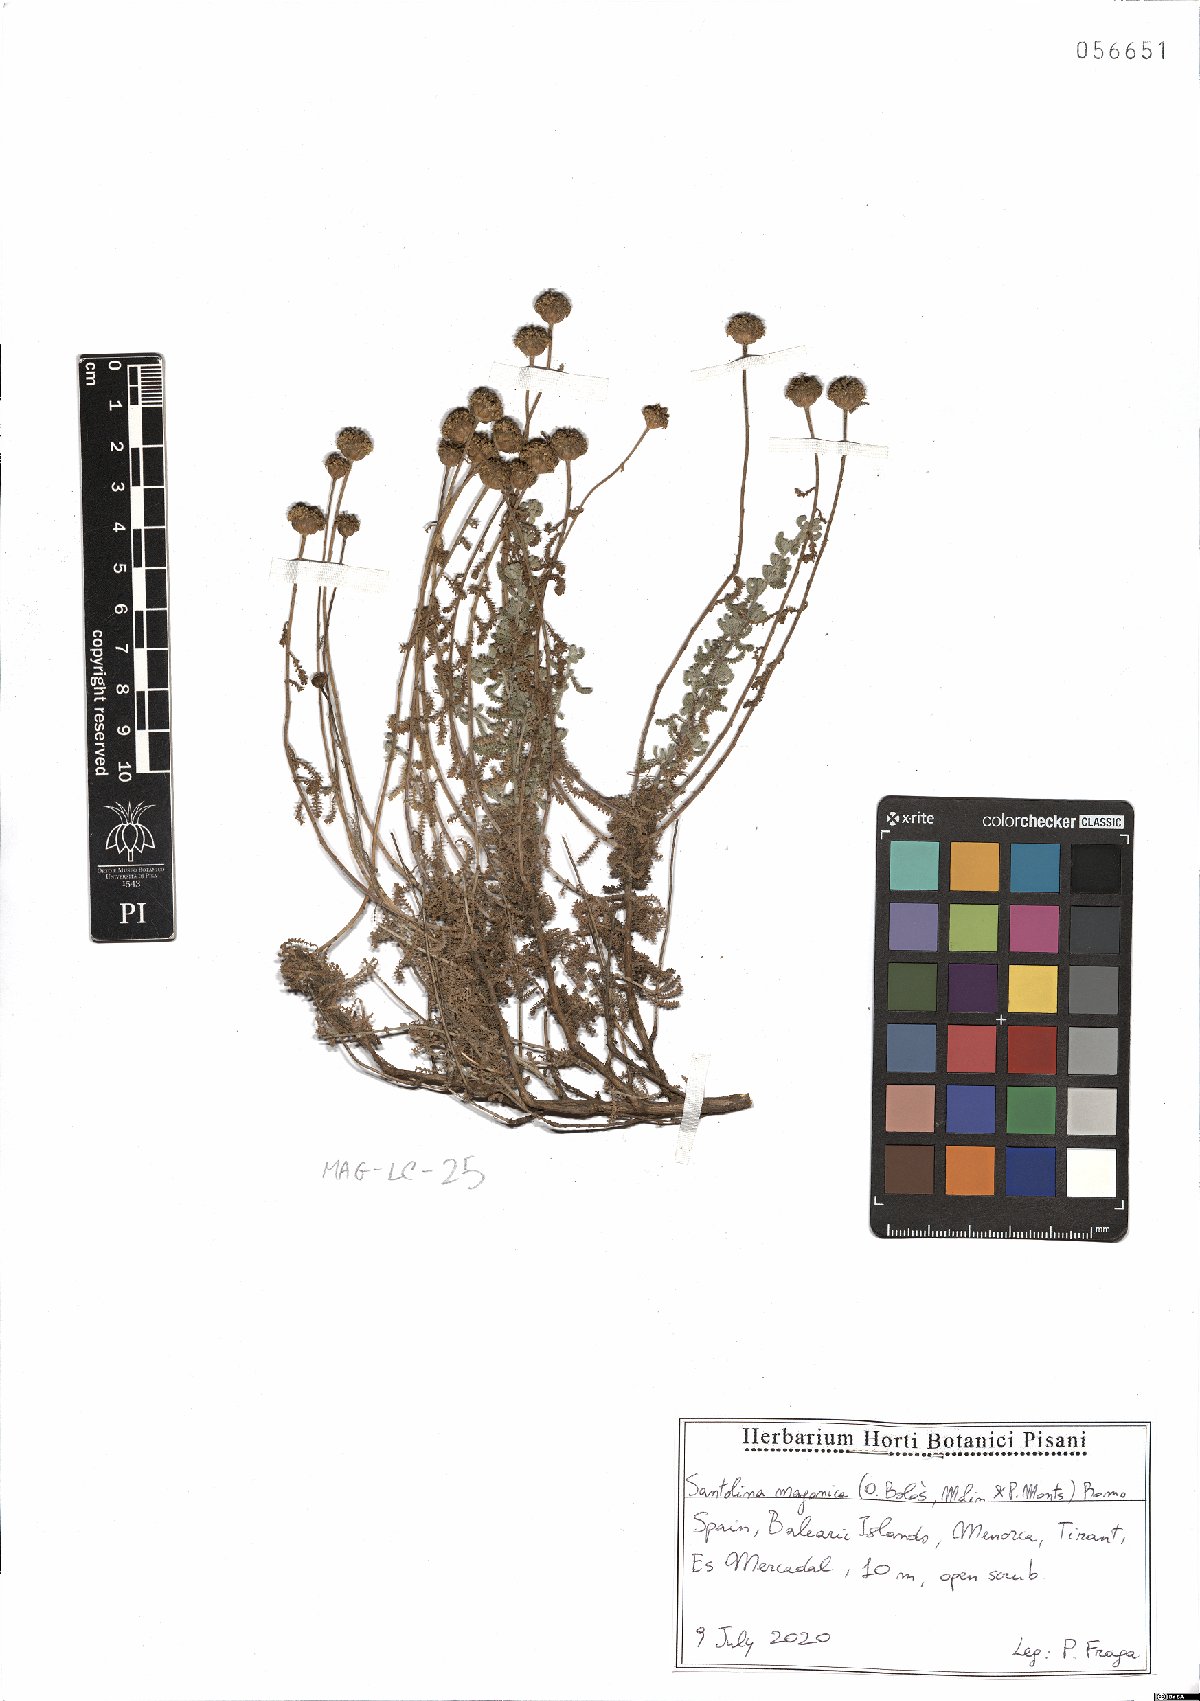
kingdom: Plantae
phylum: Tracheophyta
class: Magnoliopsida
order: Asterales
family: Asteraceae
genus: Santolina
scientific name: Santolina magonica
